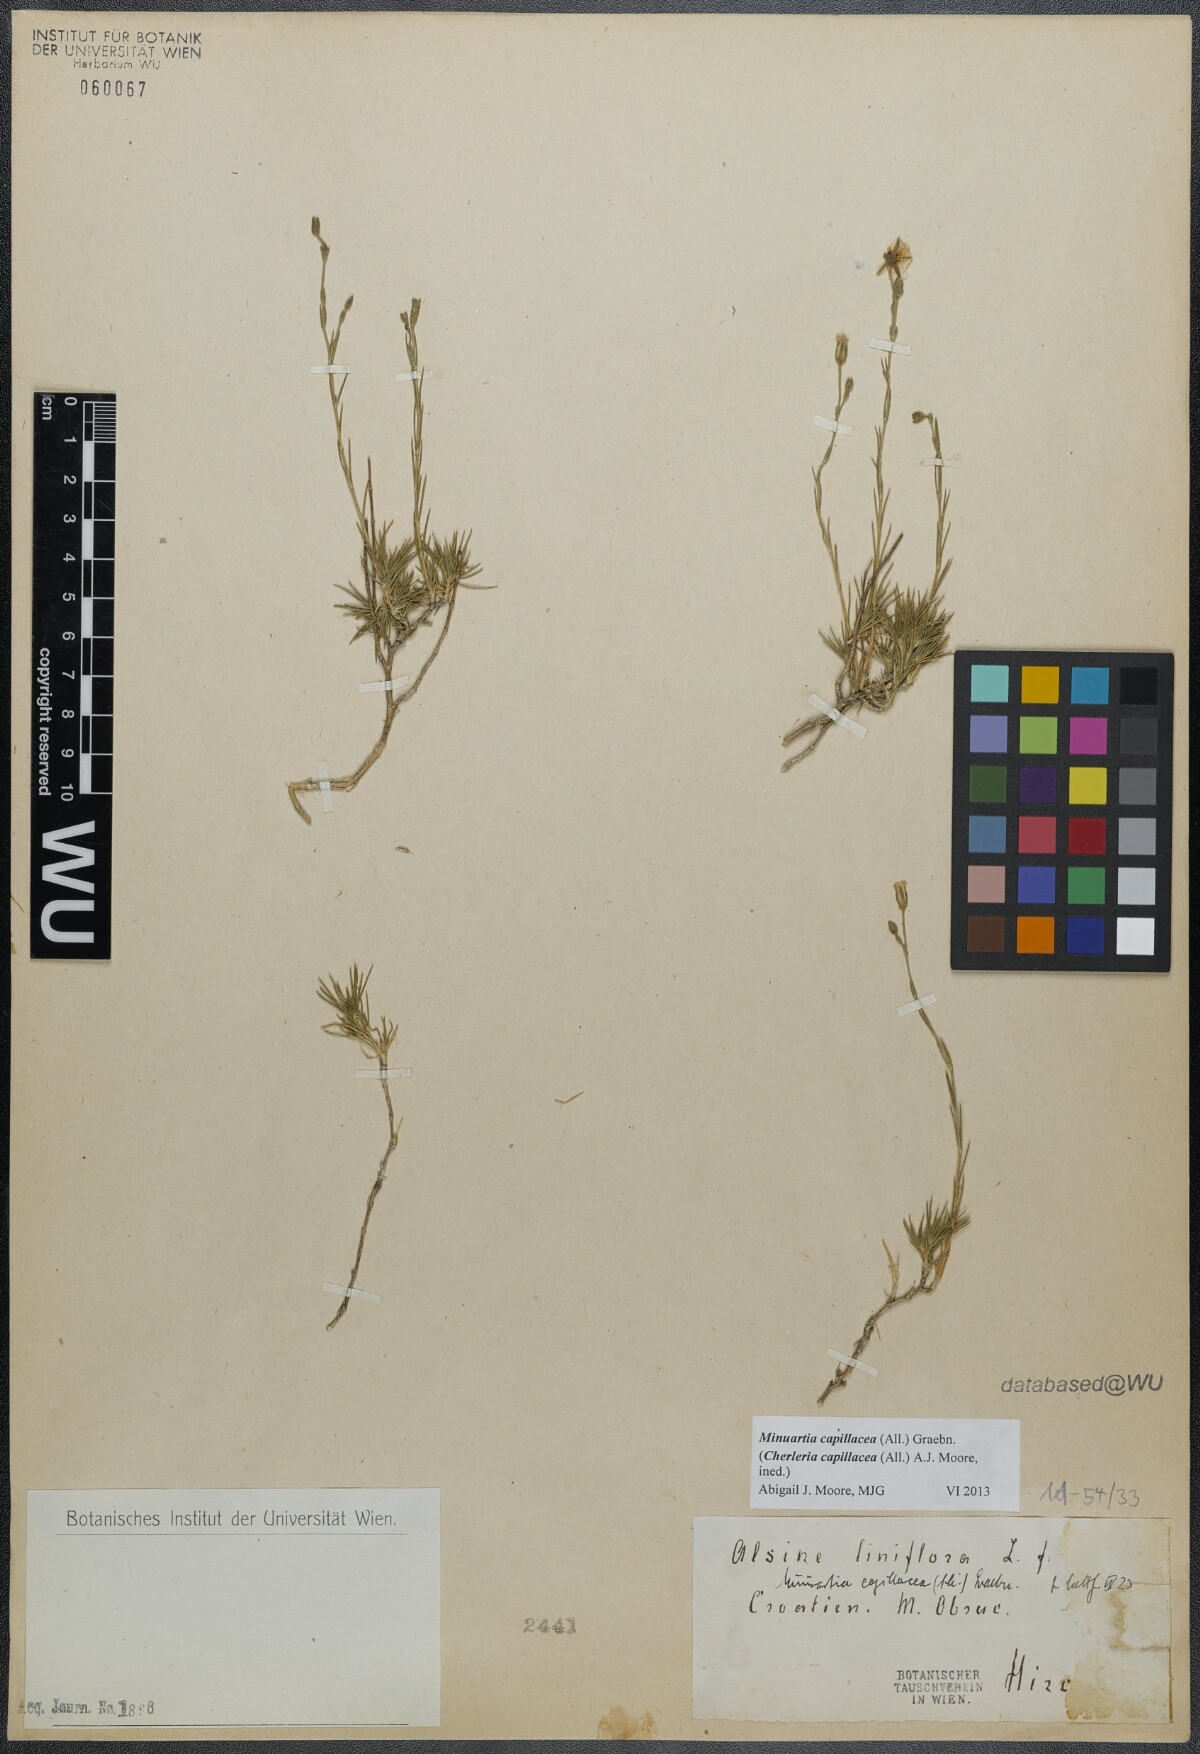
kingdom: Plantae
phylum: Tracheophyta
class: Magnoliopsida
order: Caryophyllales
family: Caryophyllaceae
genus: Cherleria
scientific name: Cherleria capillacea
